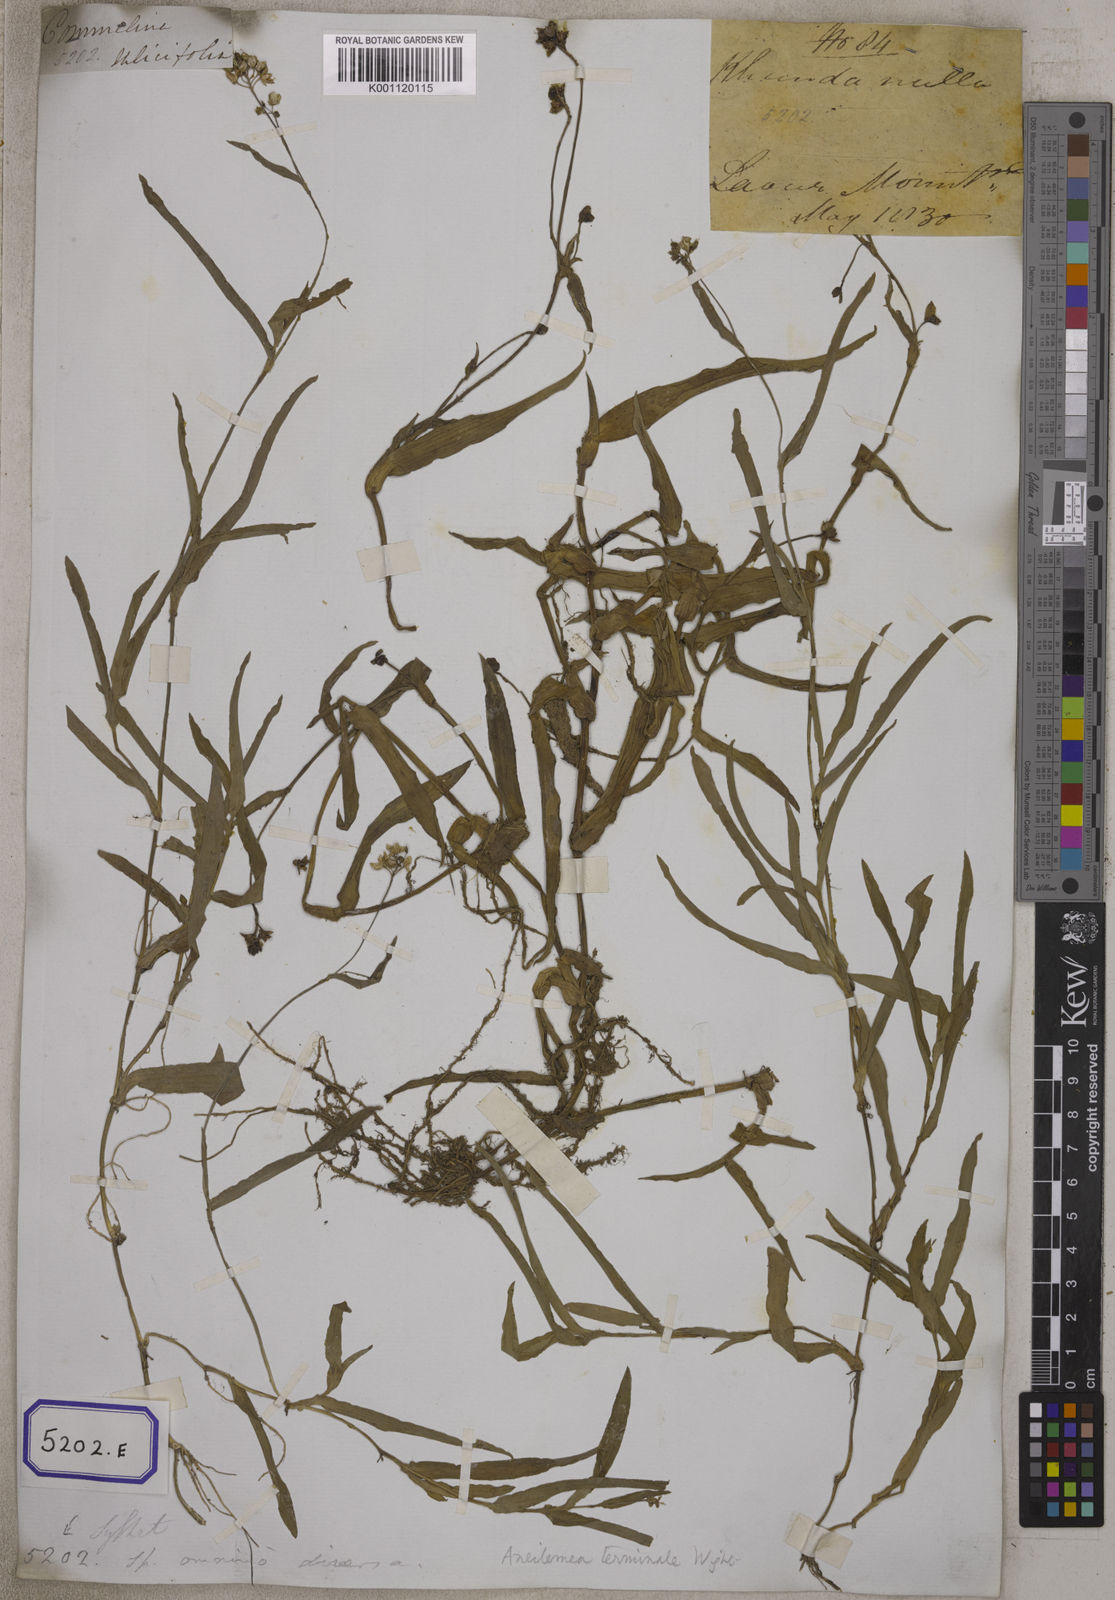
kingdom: Plantae
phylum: Tracheophyta
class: Liliopsida
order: Commelinales
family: Commelinaceae
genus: Aneilema
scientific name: Aneilema
